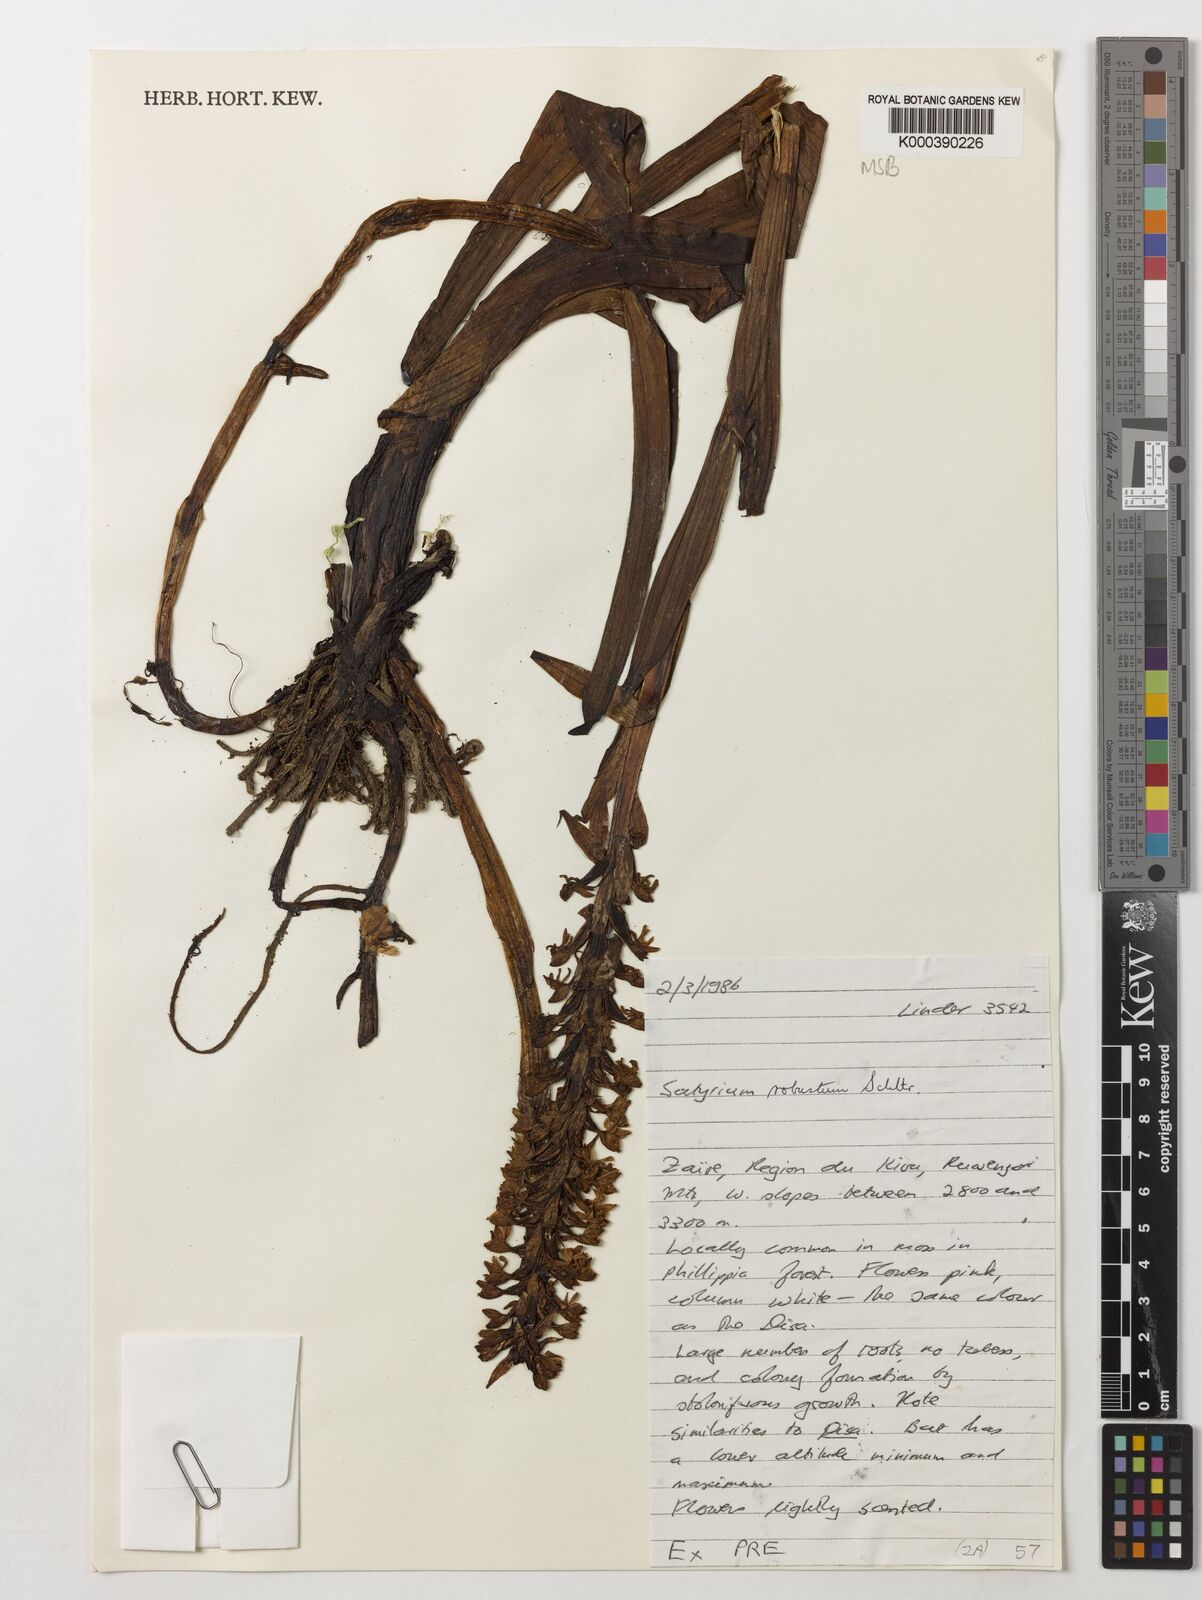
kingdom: Plantae
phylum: Tracheophyta
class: Liliopsida
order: Asparagales
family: Orchidaceae
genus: Satyrium
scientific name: Satyrium robustum
